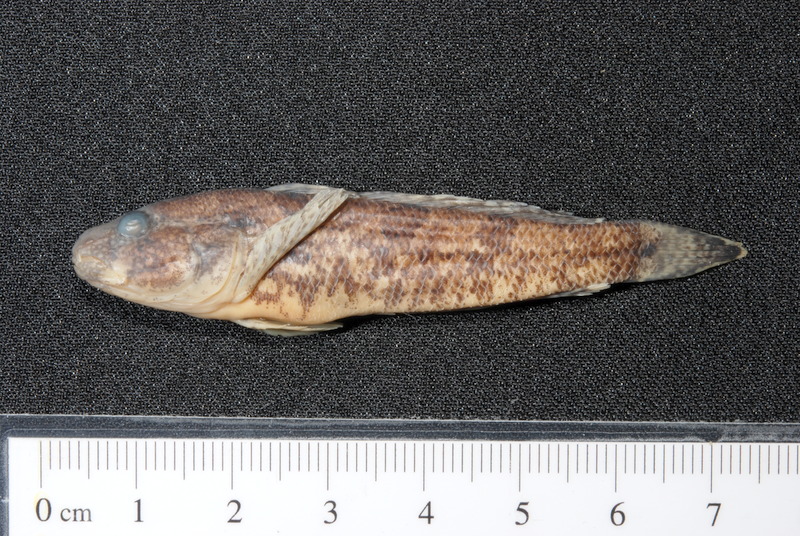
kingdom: Animalia
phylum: Chordata
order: Perciformes
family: Gobiidae
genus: Proterorhinus
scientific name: Proterorhinus semilunaris
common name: Western tubenose goby
